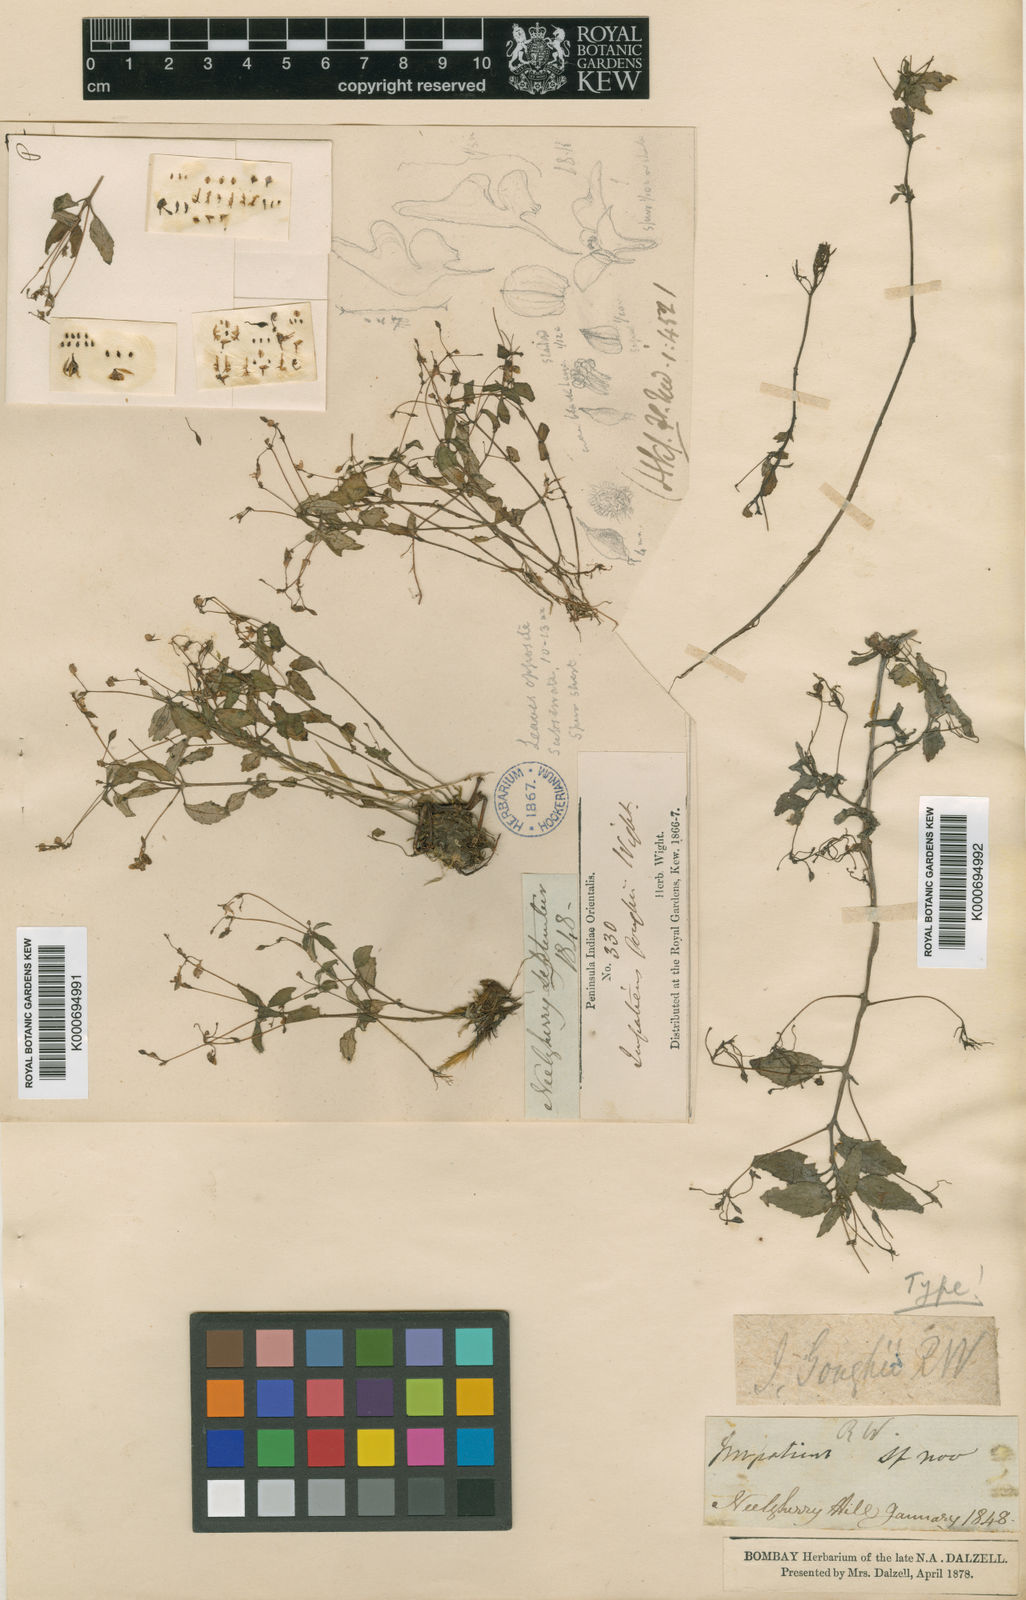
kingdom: Plantae
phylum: Tracheophyta
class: Magnoliopsida
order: Ericales
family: Balsaminaceae
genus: Impatiens
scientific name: Impatiens goughii
